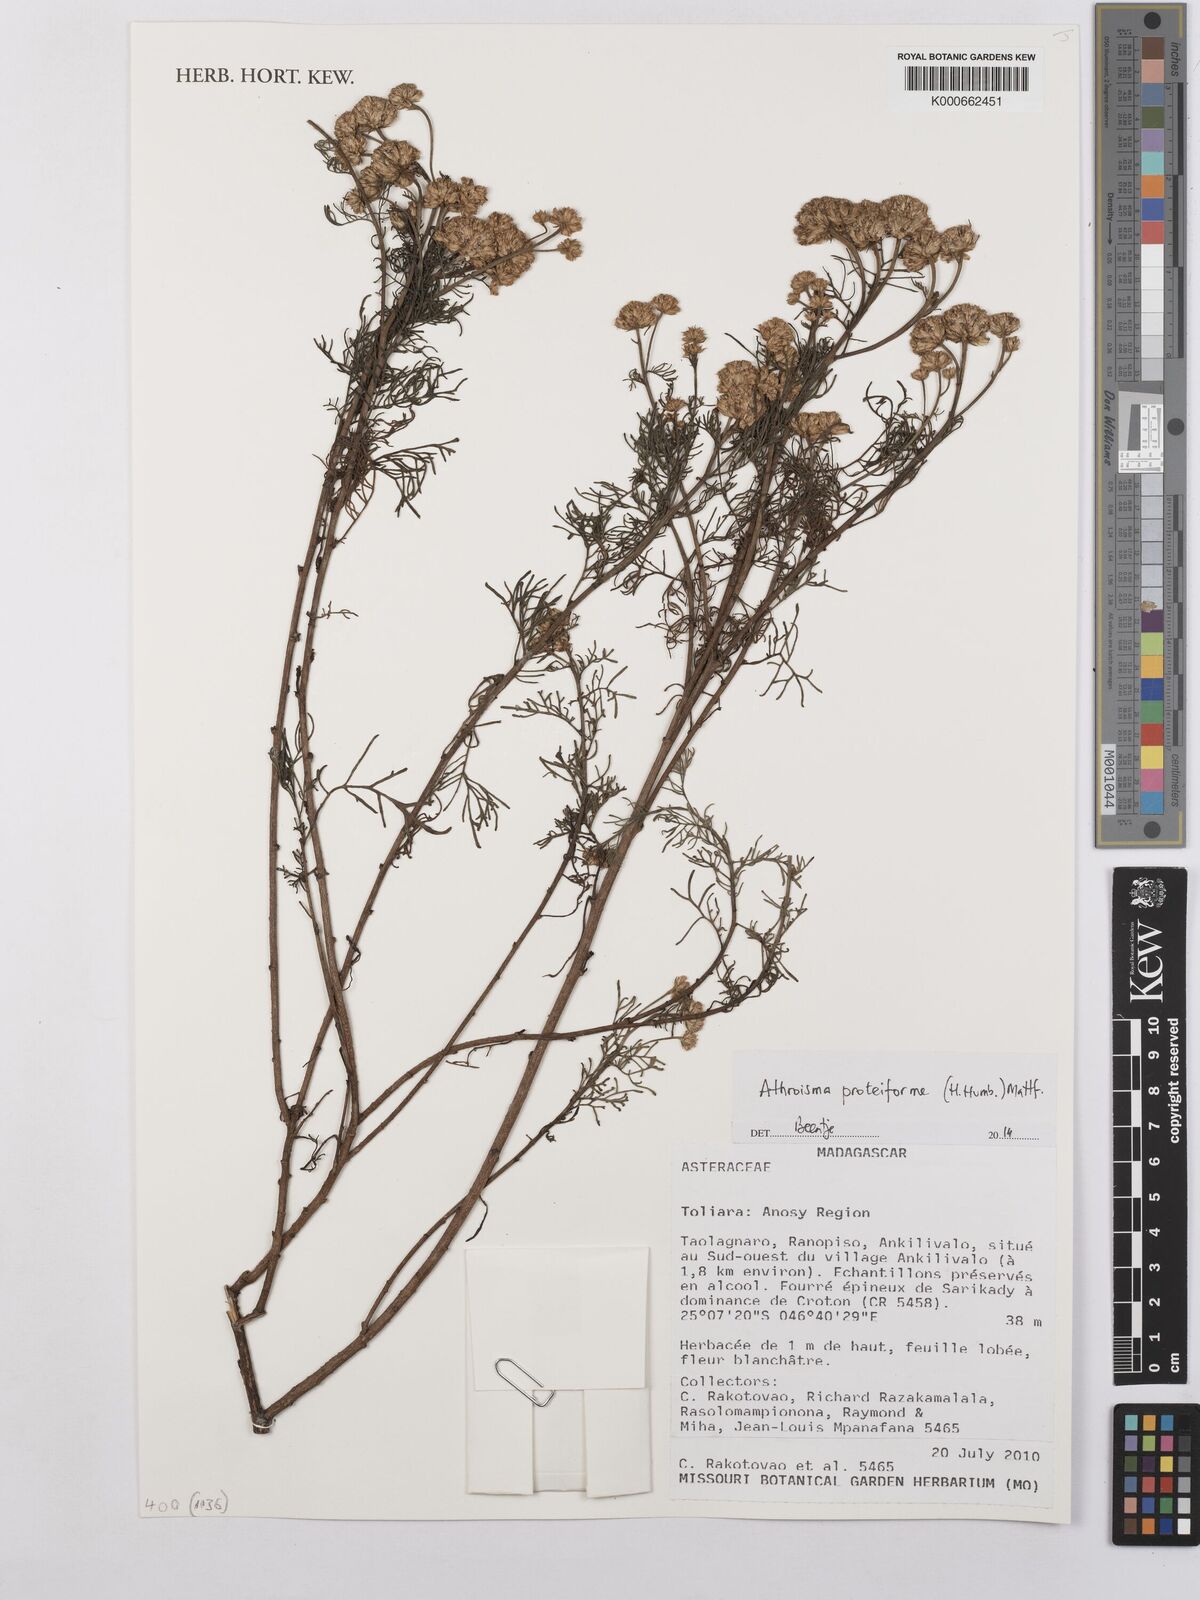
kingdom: Plantae
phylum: Tracheophyta
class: Magnoliopsida
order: Asterales
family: Asteraceae
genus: Athroisma
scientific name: Athroisma proteiforme
